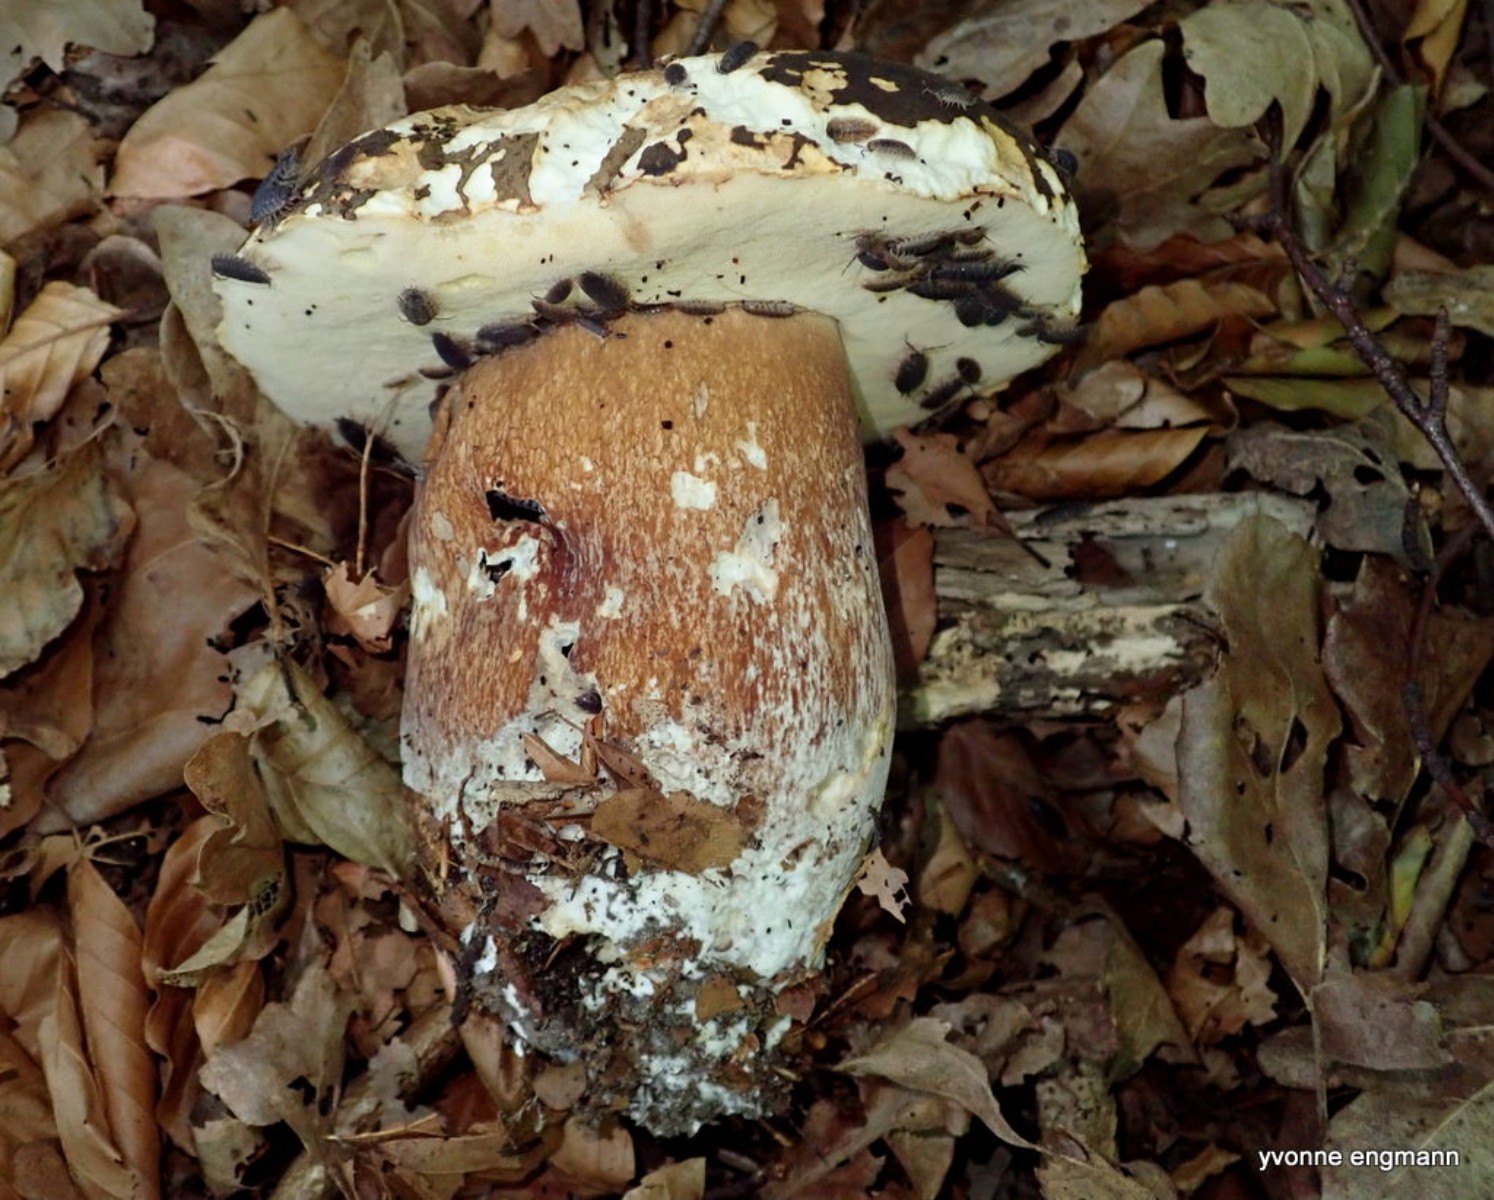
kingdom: Fungi
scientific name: Fungi
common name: bronze-rørhat
